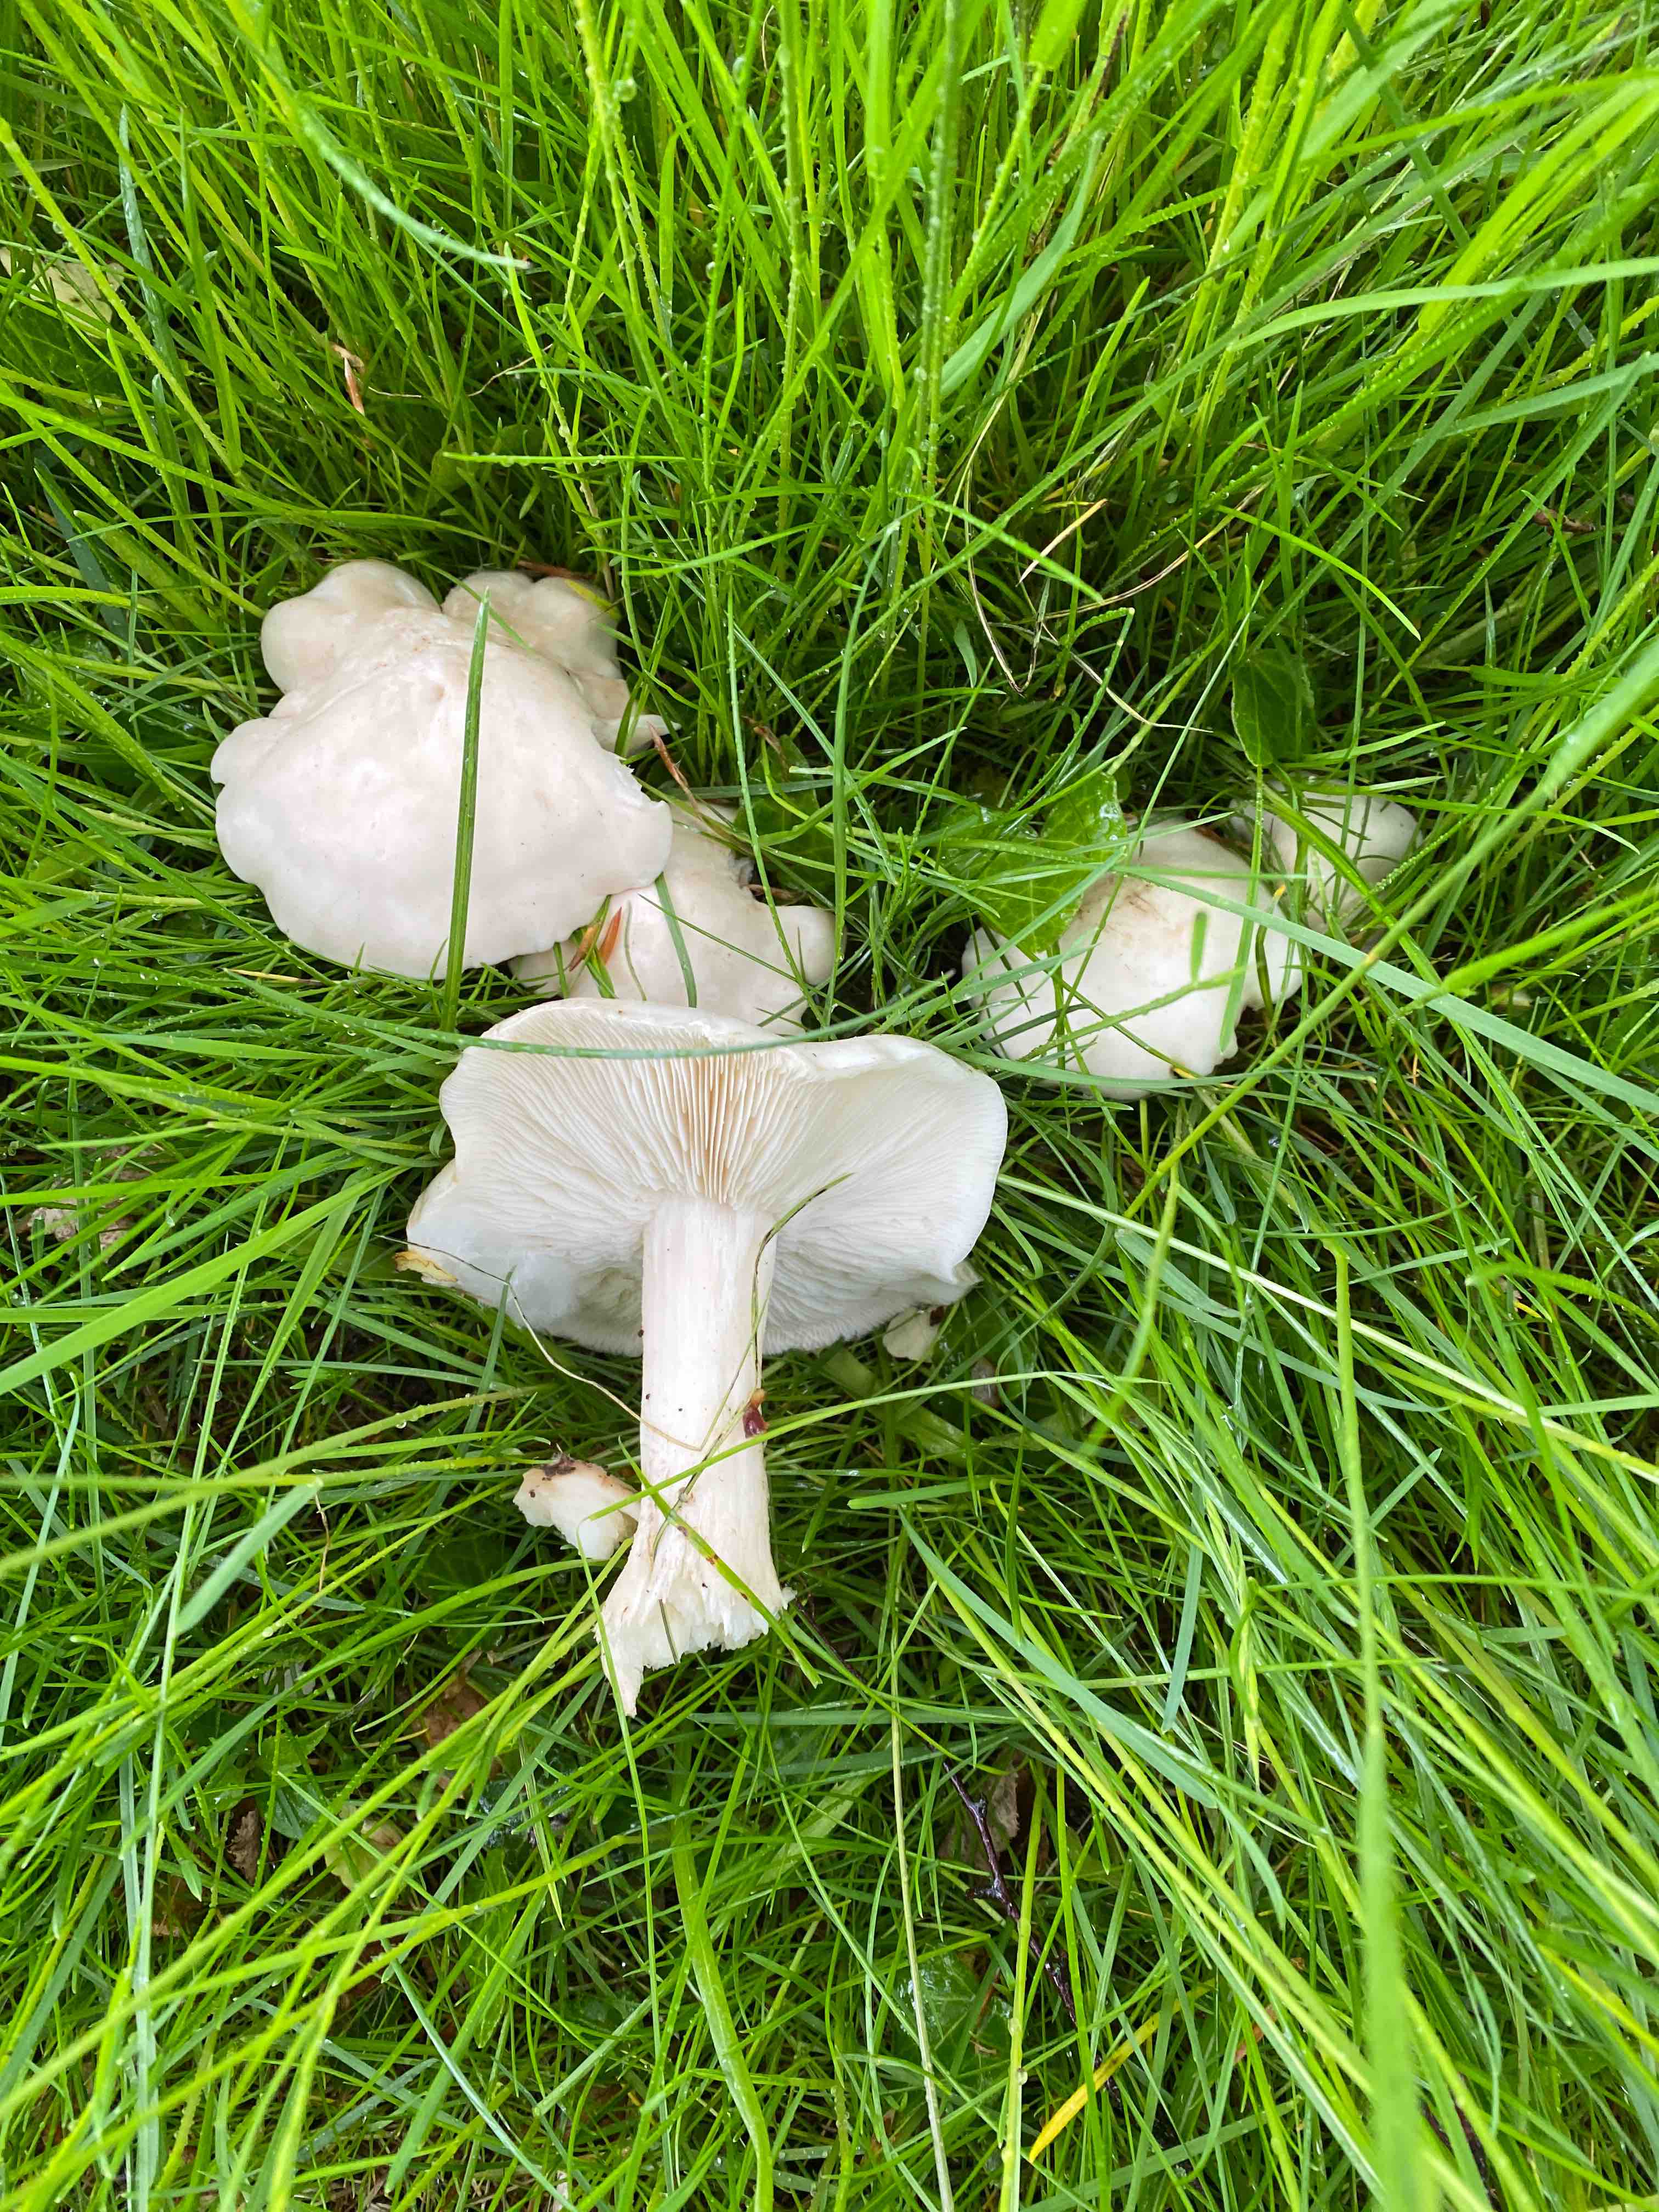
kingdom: Fungi
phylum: Basidiomycota
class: Agaricomycetes
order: Agaricales
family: Lyophyllaceae
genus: Calocybe
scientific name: Calocybe gambosa
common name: vårmusseron
